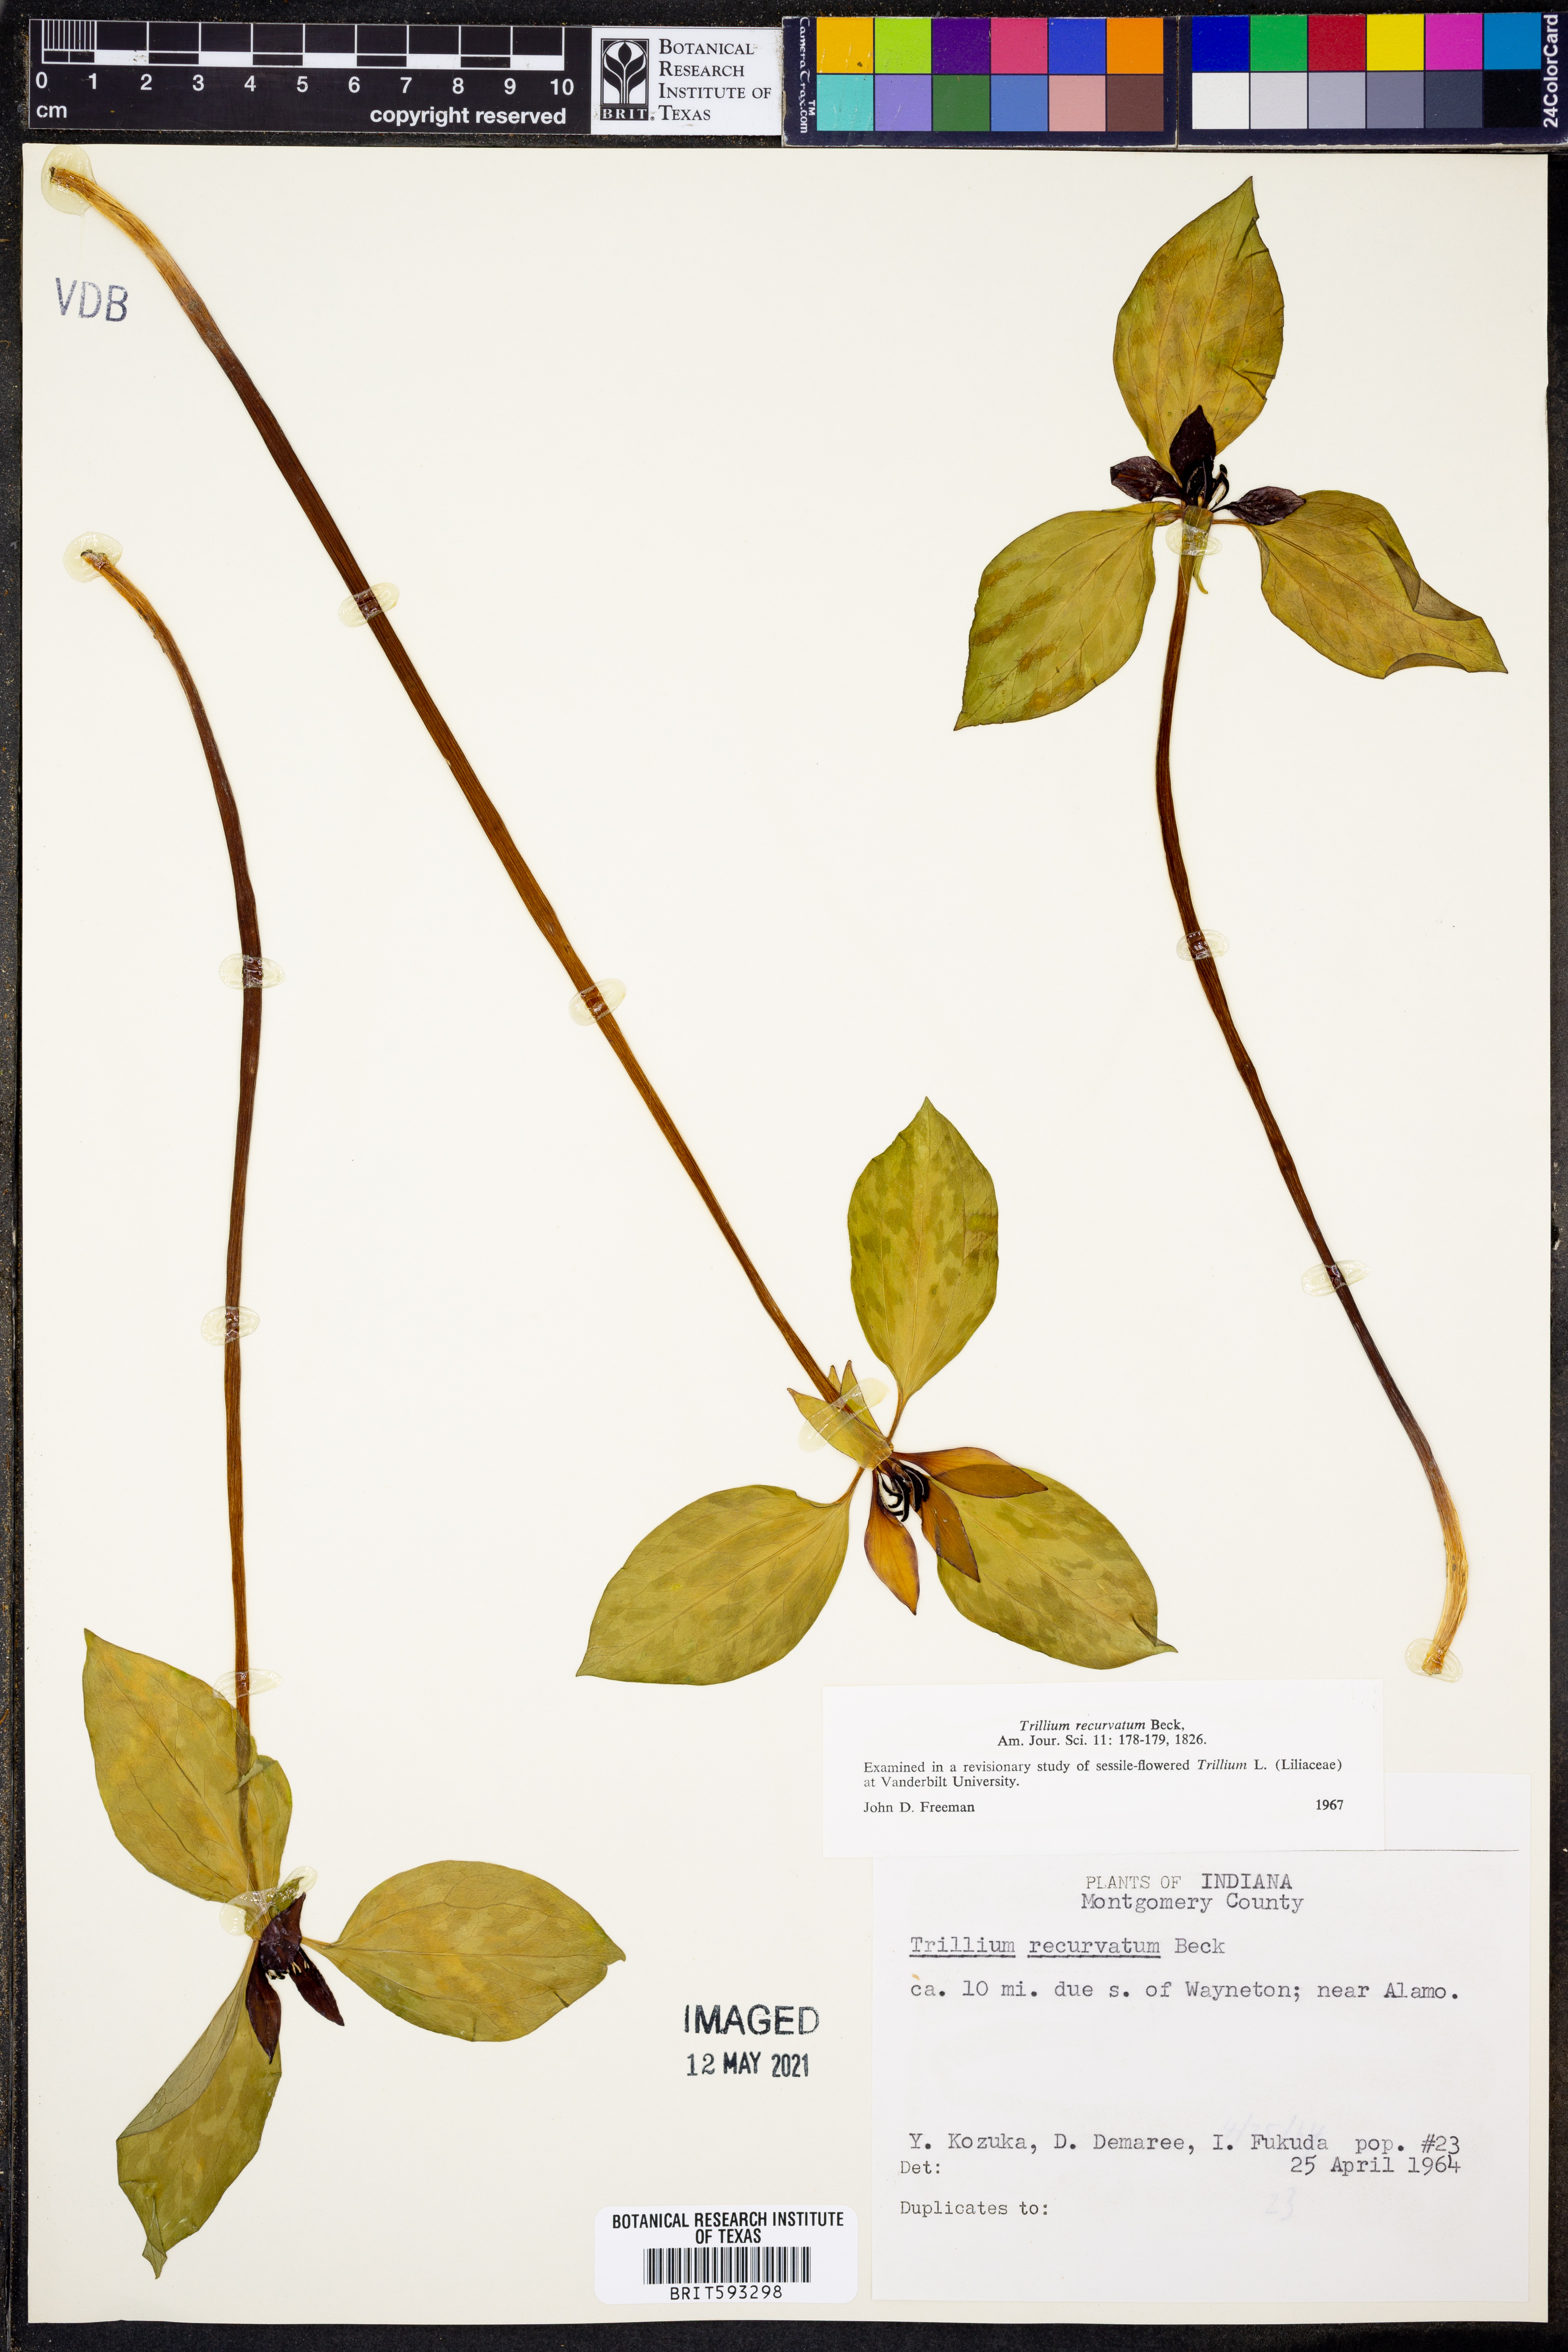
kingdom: Plantae
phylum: Tracheophyta
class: Liliopsida
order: Liliales
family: Melanthiaceae
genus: Trillium
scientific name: Trillium recurvatum
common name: Bloody butcher
